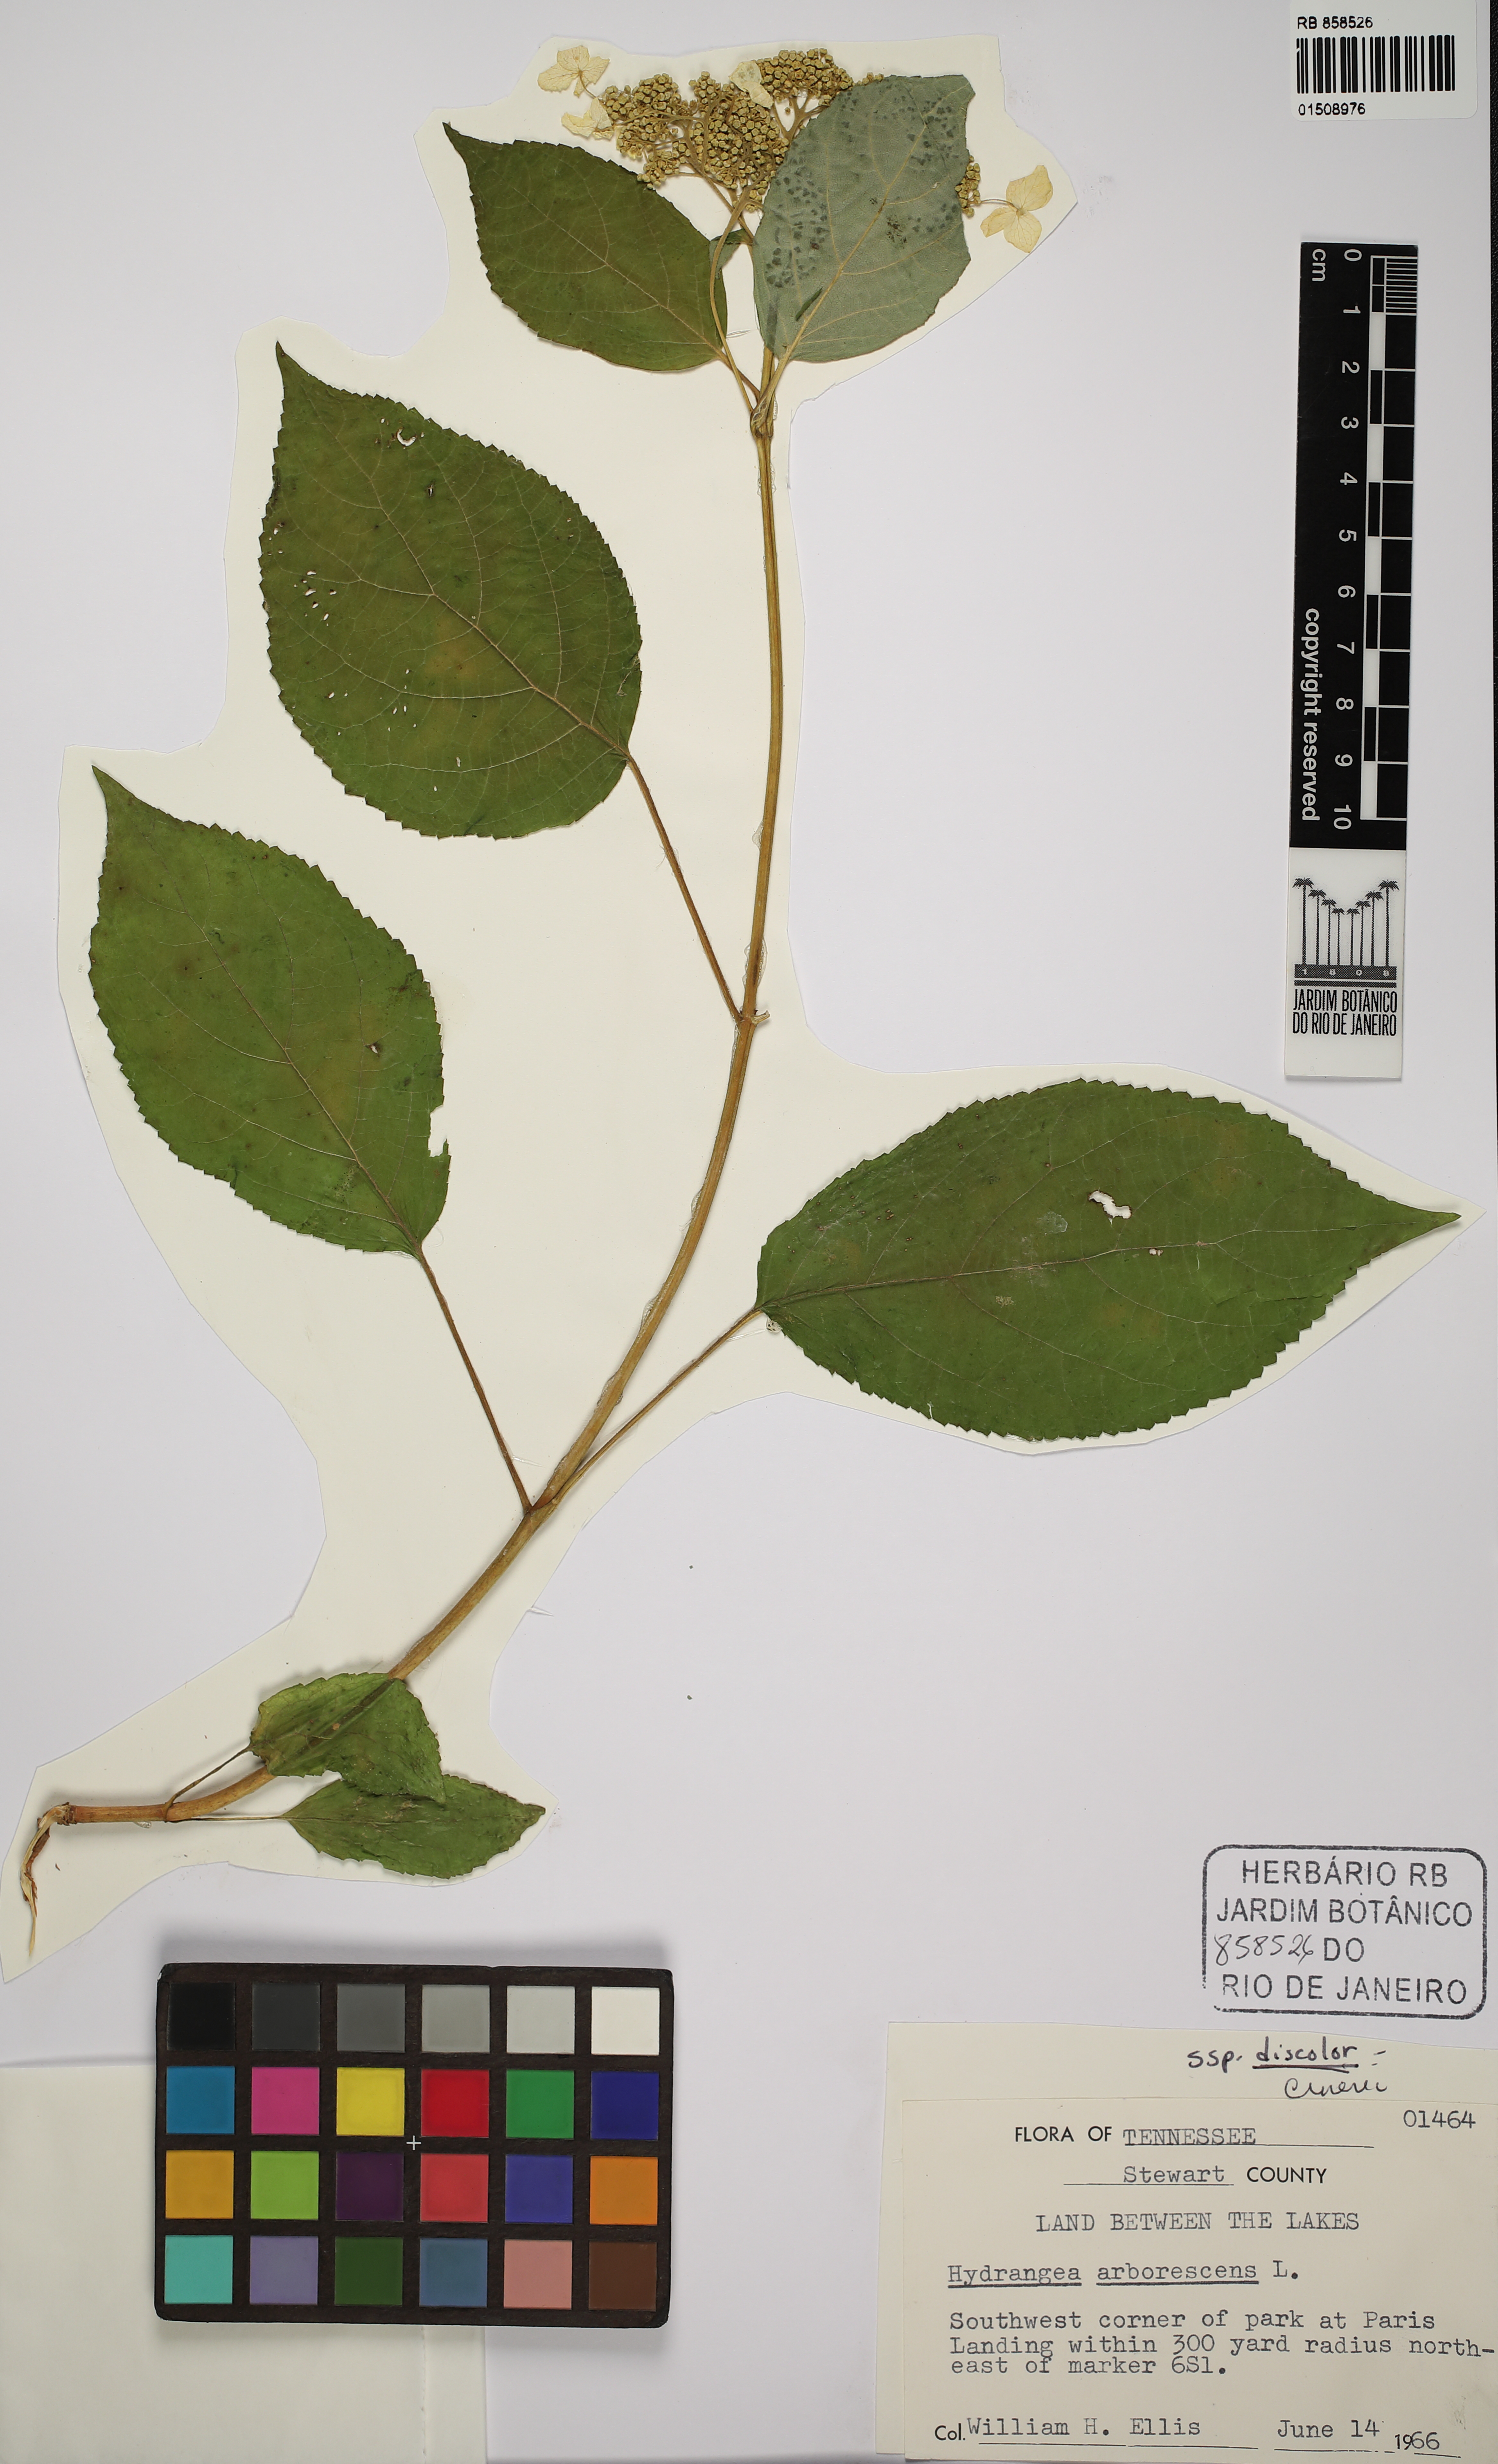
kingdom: Plantae
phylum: Tracheophyta
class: Magnoliopsida
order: Cornales
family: Hydrangeaceae
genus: Hydrangea
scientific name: Hydrangea arborescens
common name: Sevenbark
